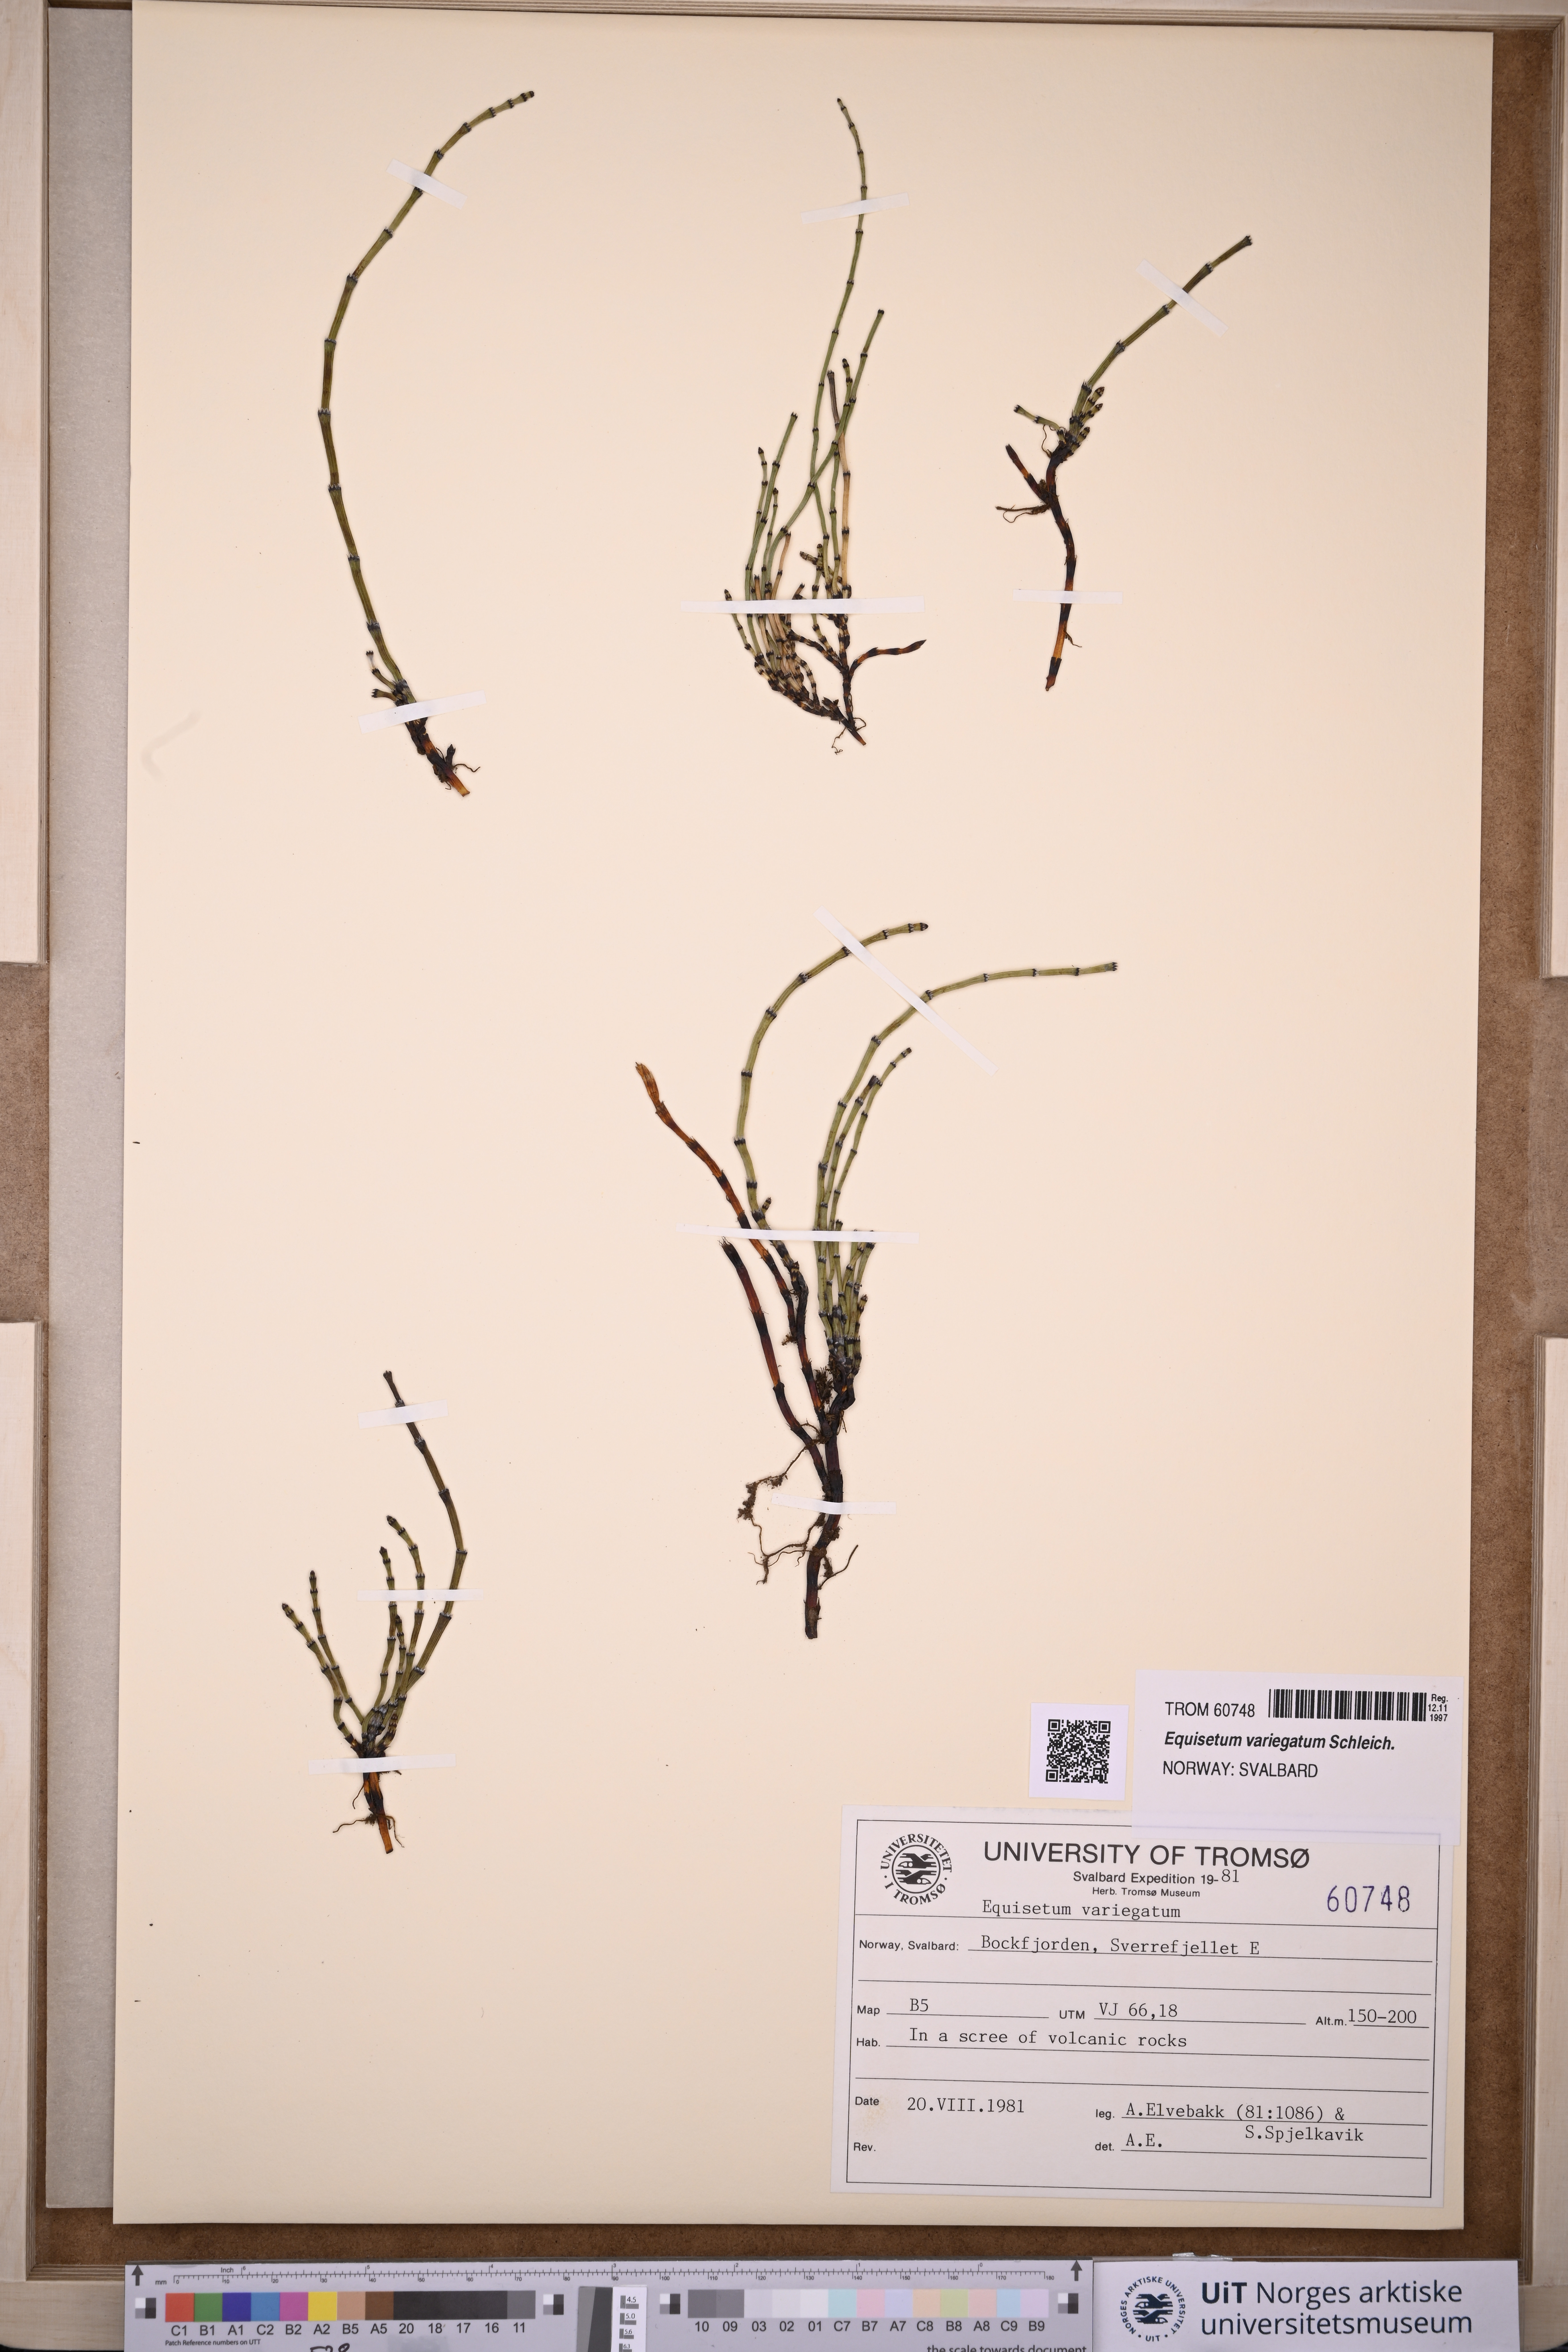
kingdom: Plantae
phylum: Tracheophyta
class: Polypodiopsida
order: Equisetales
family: Equisetaceae
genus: Equisetum
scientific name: Equisetum variegatum
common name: Variegated horsetail
